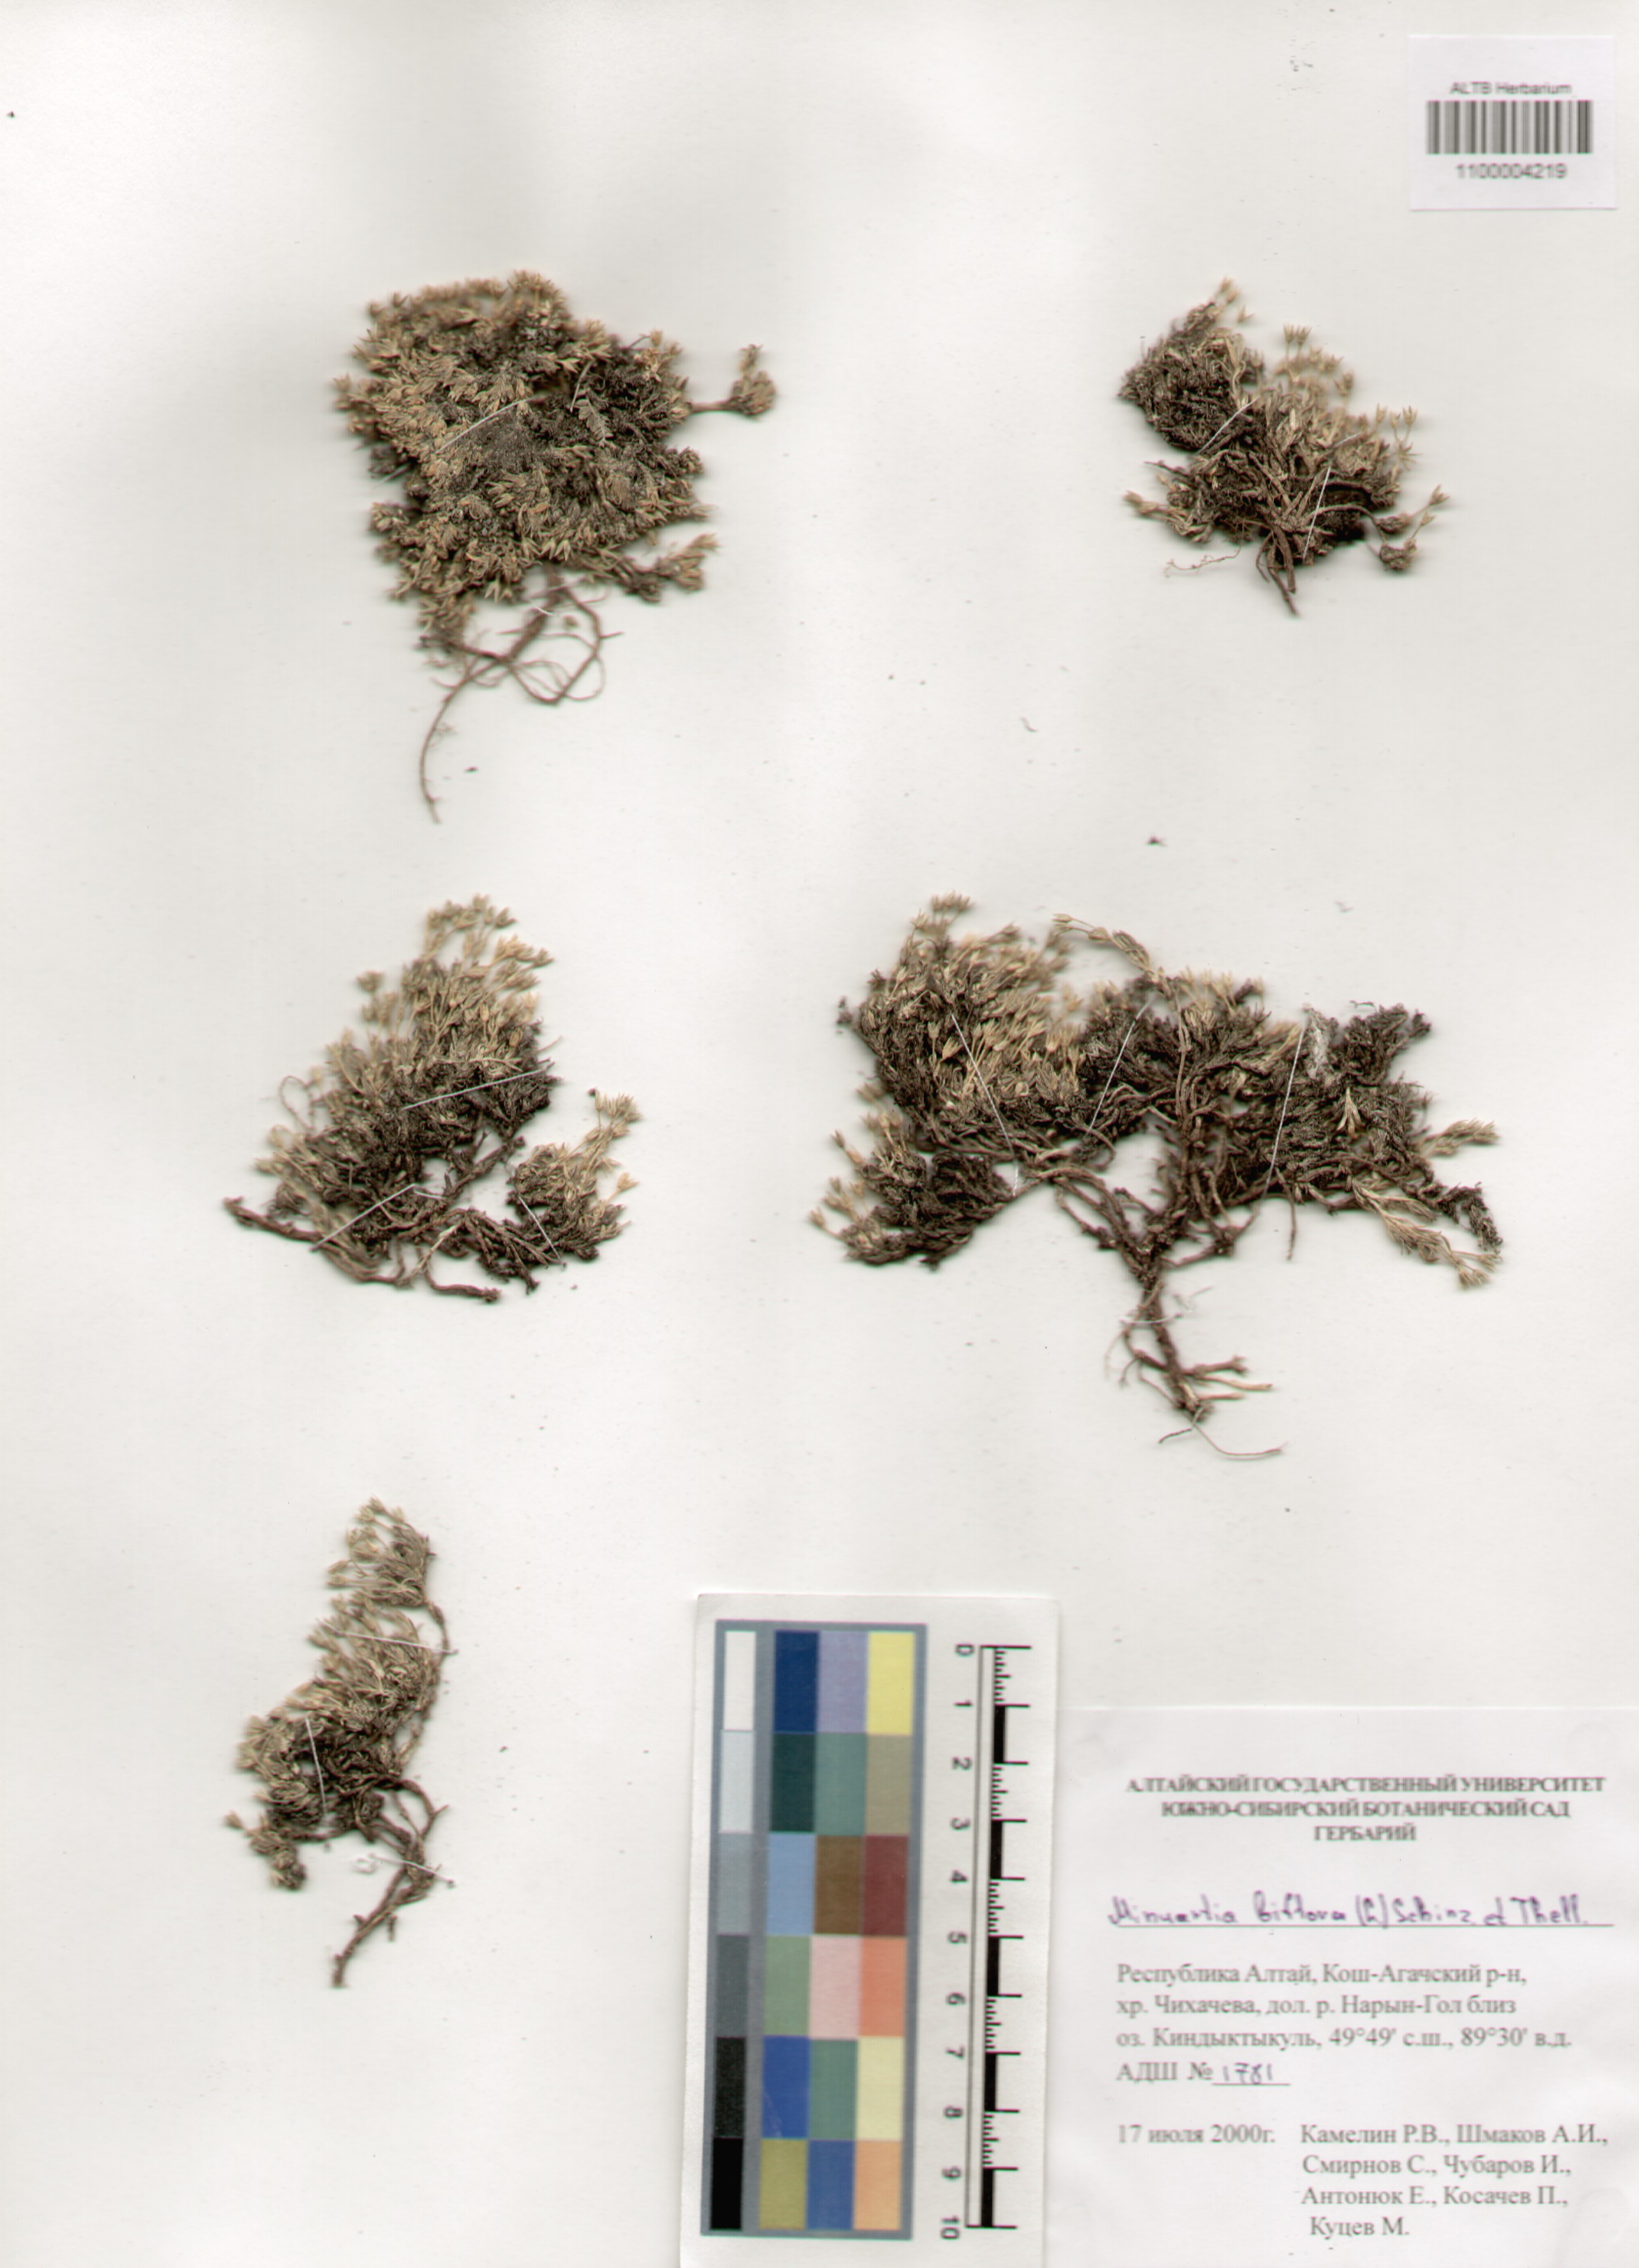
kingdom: Plantae
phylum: Tracheophyta
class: Magnoliopsida
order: Caryophyllales
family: Caryophyllaceae
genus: Cherleria
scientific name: Cherleria biflora
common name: Mountain sandwort
